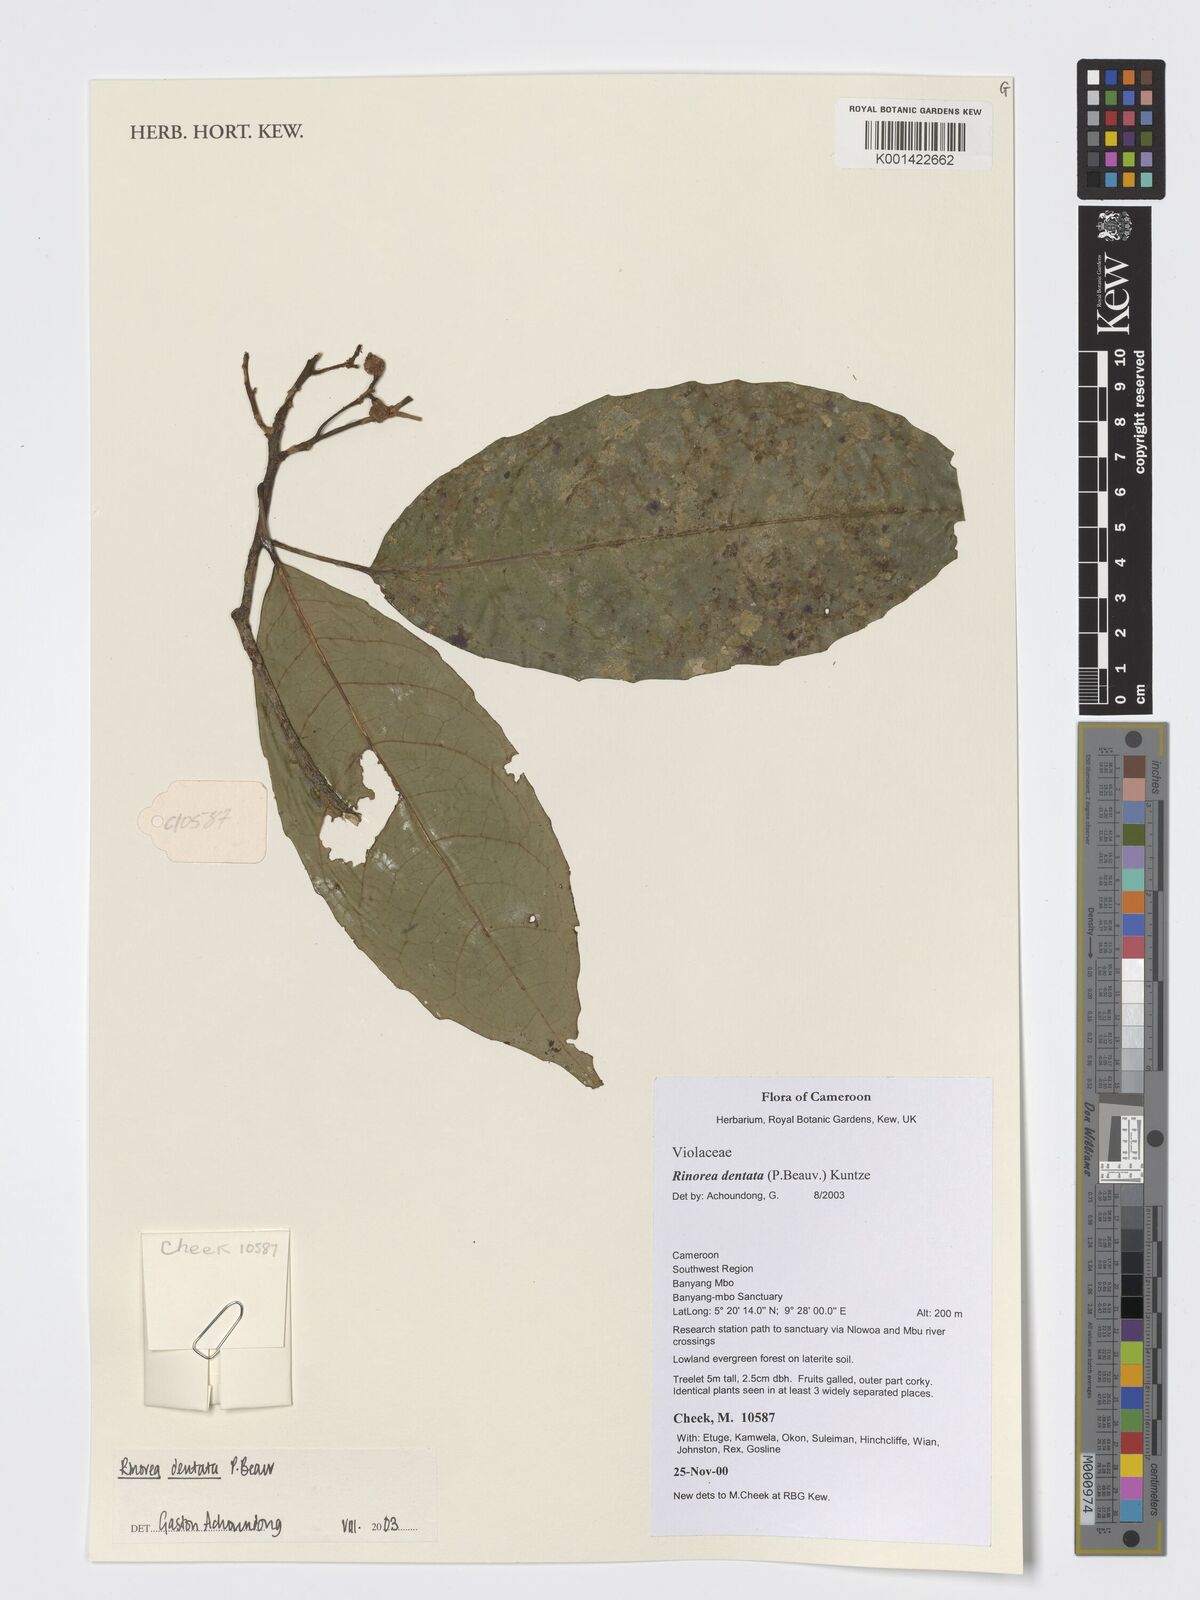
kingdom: Plantae
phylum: Tracheophyta
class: Magnoliopsida
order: Malpighiales
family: Violaceae
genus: Rinorea
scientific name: Rinorea dentata
